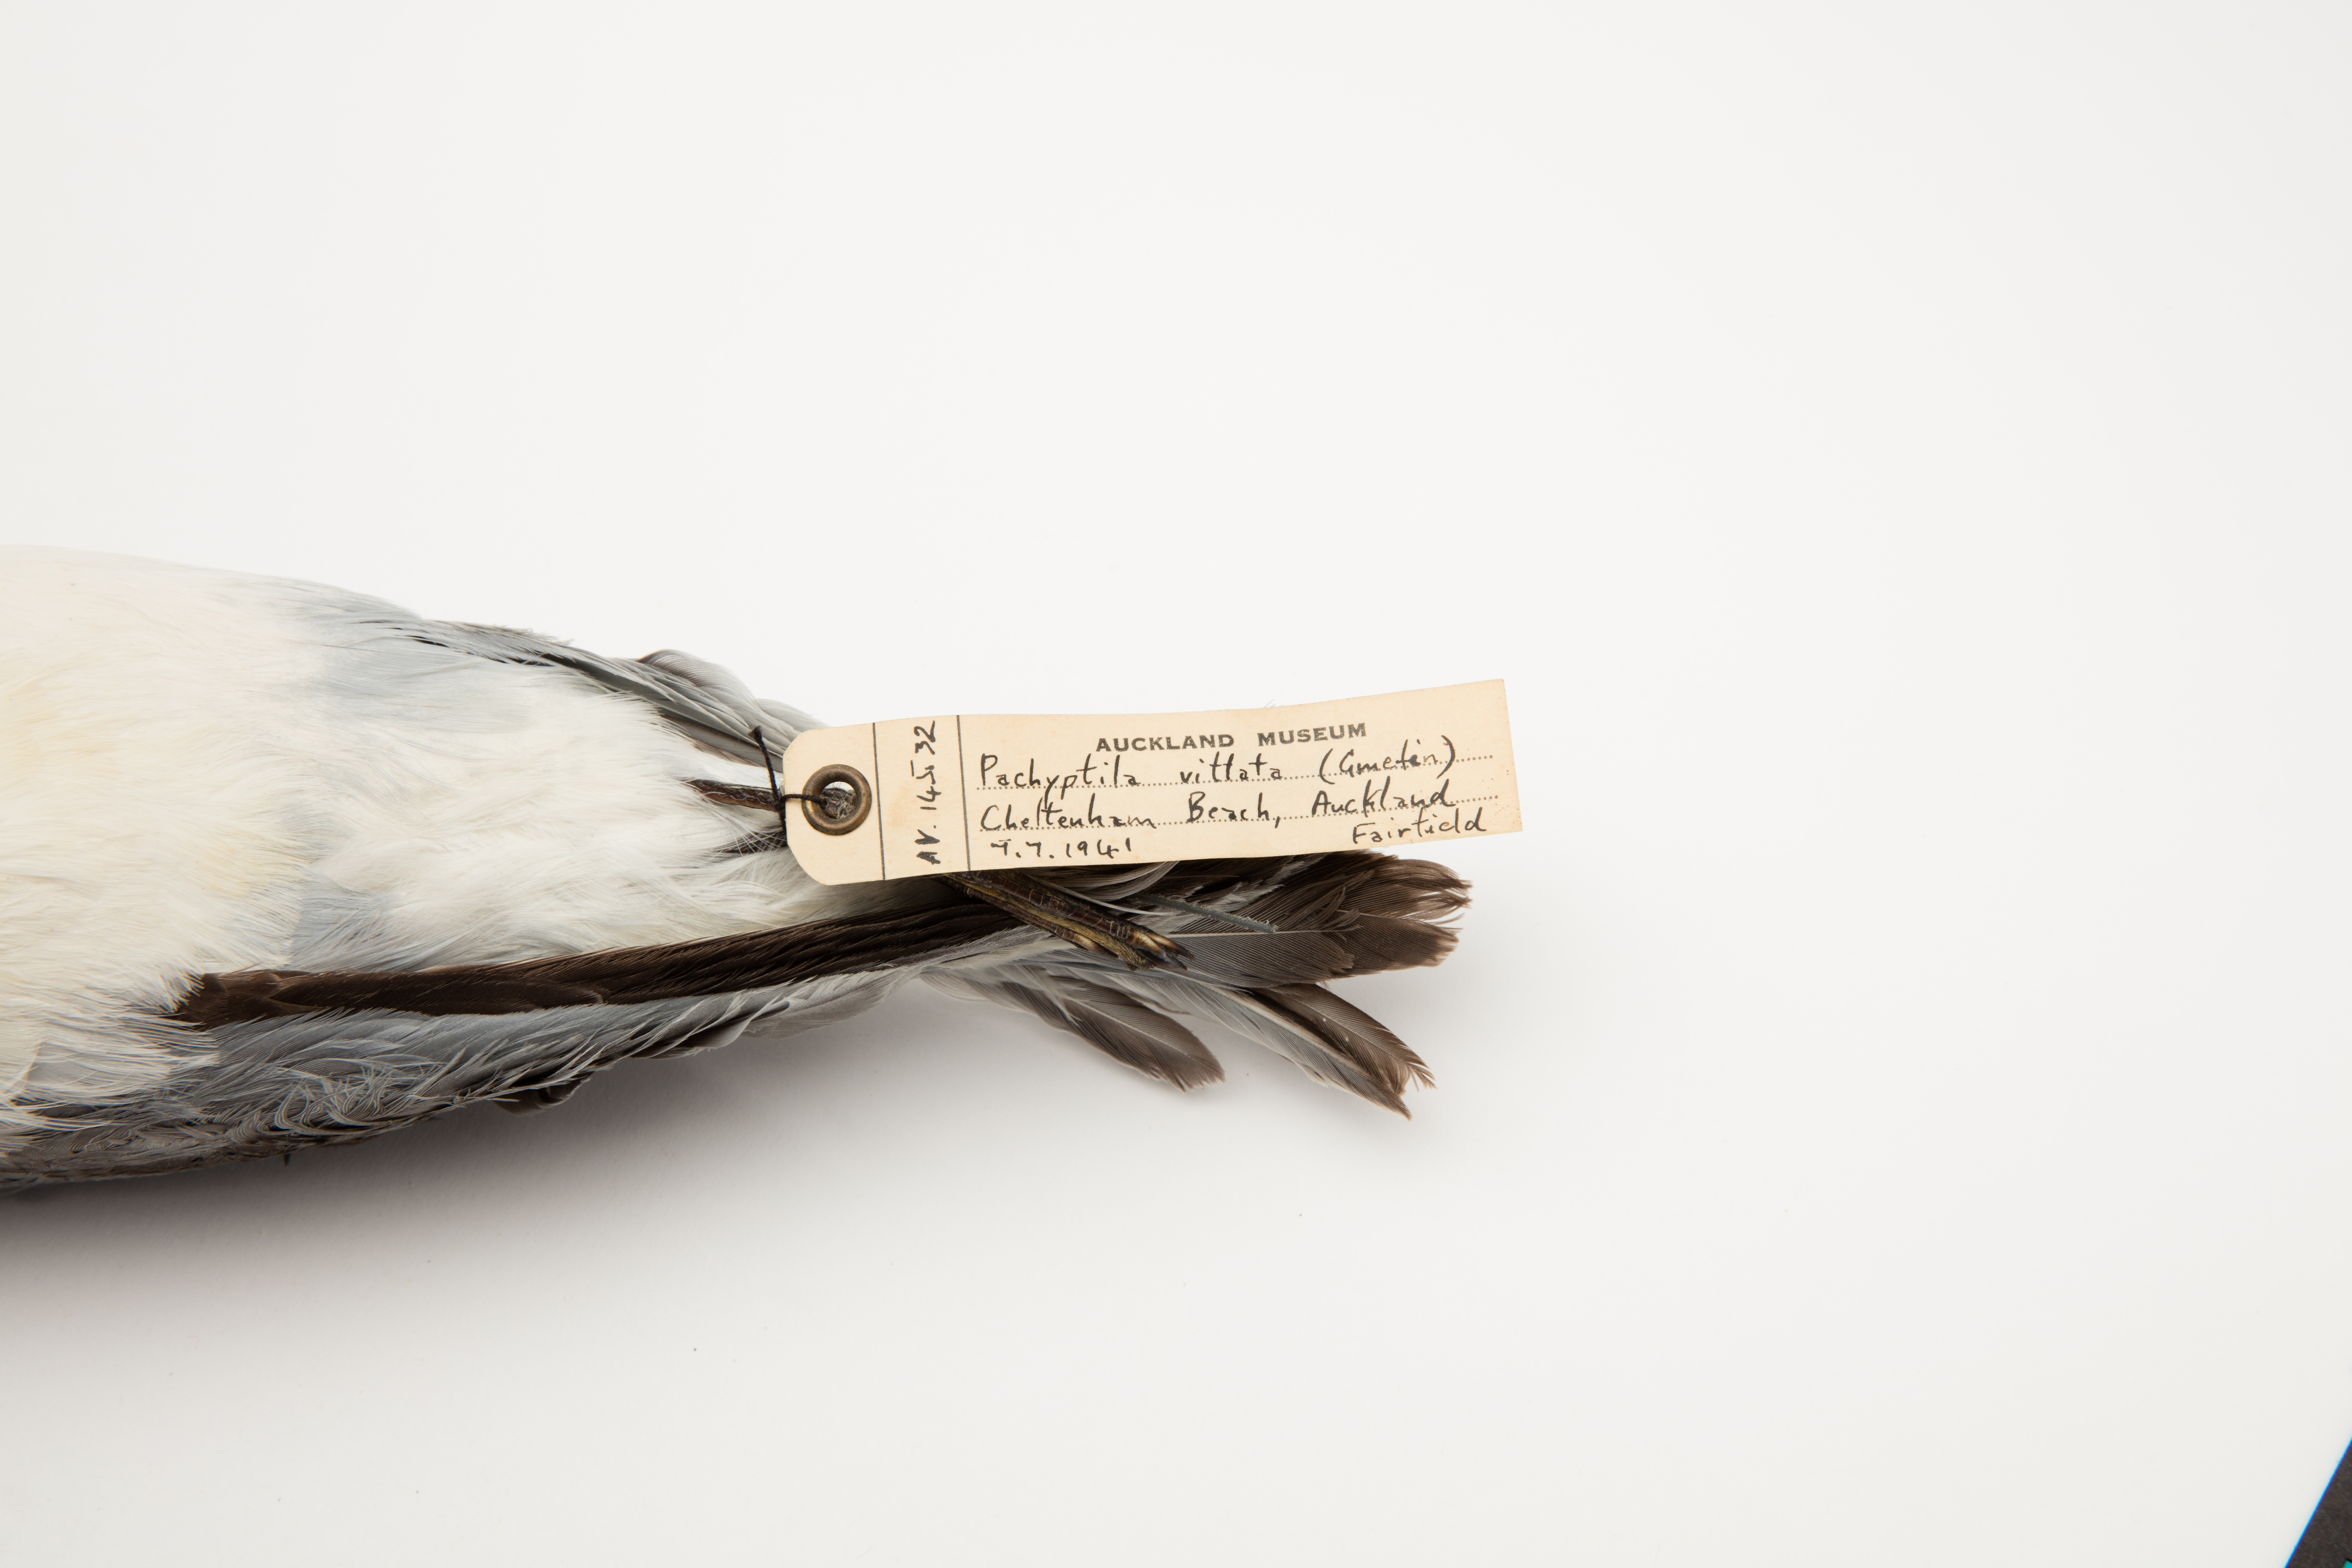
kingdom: Animalia
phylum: Chordata
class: Aves
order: Procellariiformes
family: Procellariidae
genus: Pachyptila
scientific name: Pachyptila vittata
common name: Broad-billed prion
